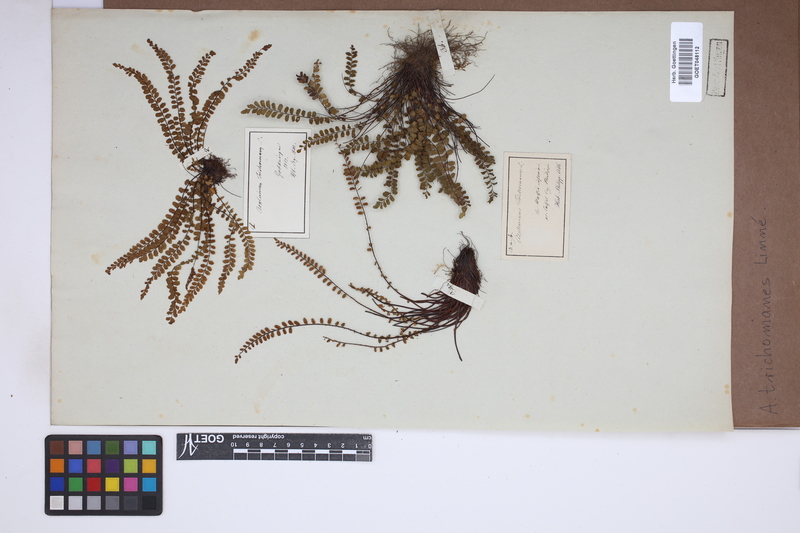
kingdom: Plantae
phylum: Tracheophyta
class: Polypodiopsida
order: Polypodiales
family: Aspleniaceae
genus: Asplenium
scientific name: Asplenium trichomanes
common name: Maidenhair spleenwort
